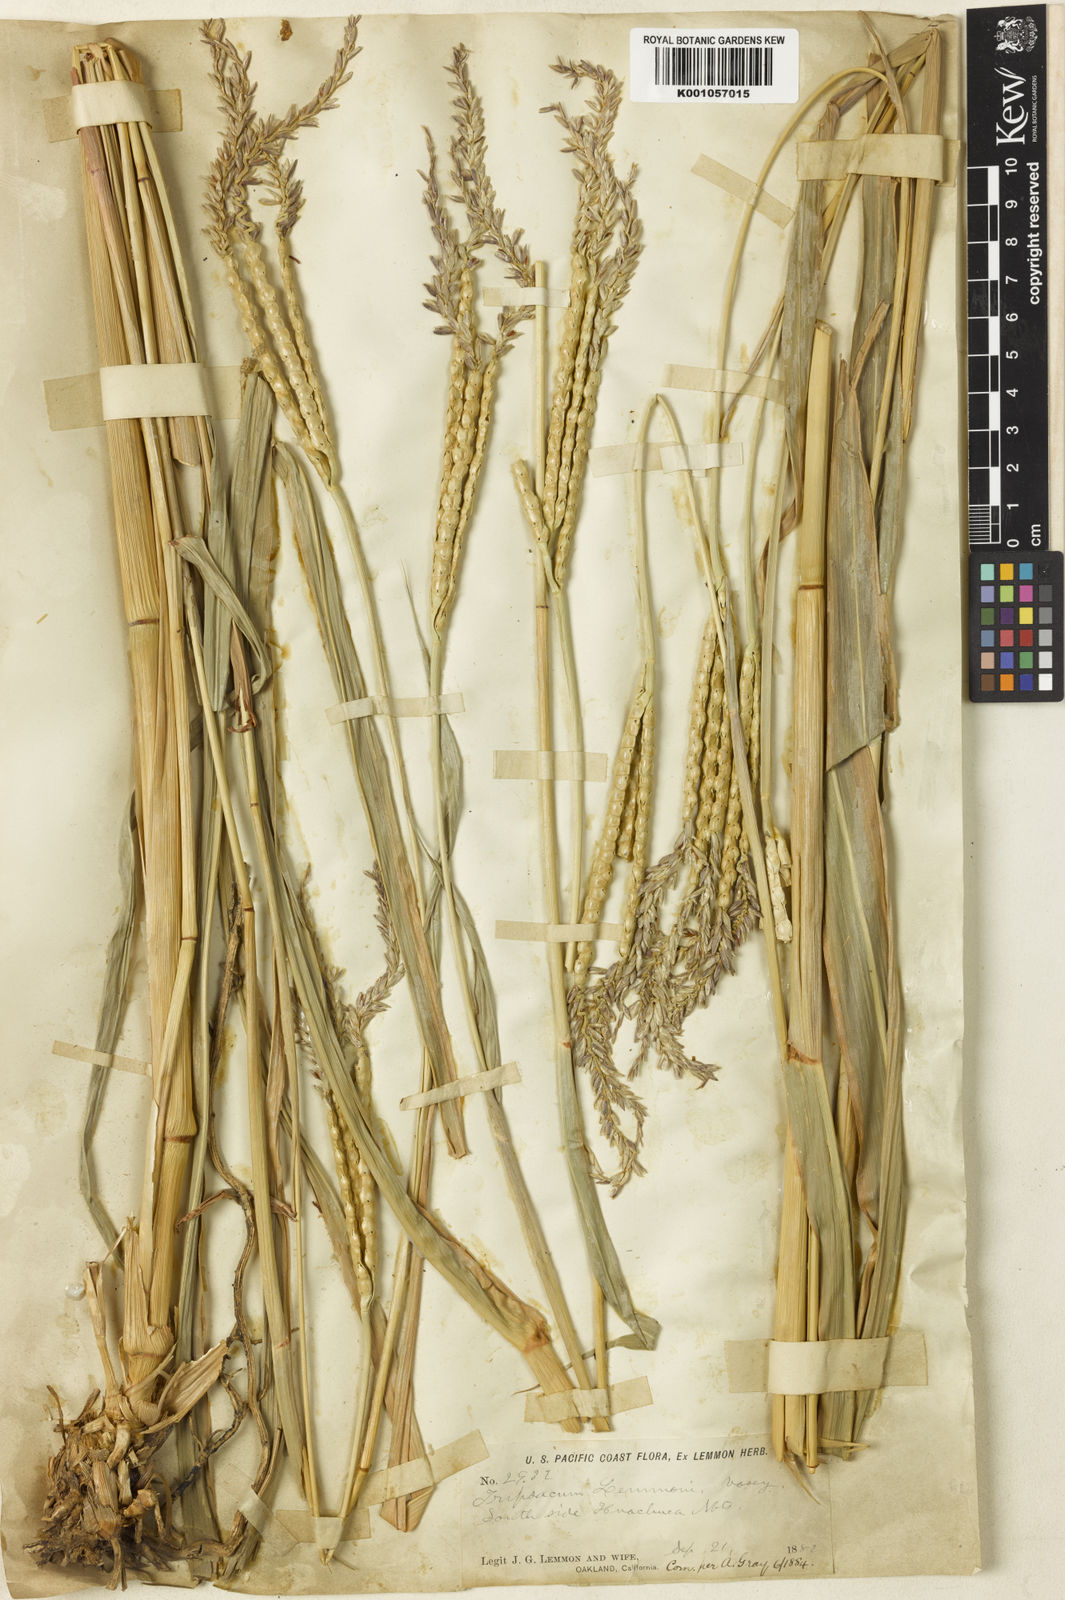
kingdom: Plantae
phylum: Tracheophyta
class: Liliopsida
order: Poales
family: Poaceae
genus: Tripsacum
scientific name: Tripsacum lanceolatum
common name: Mexican gama grass
